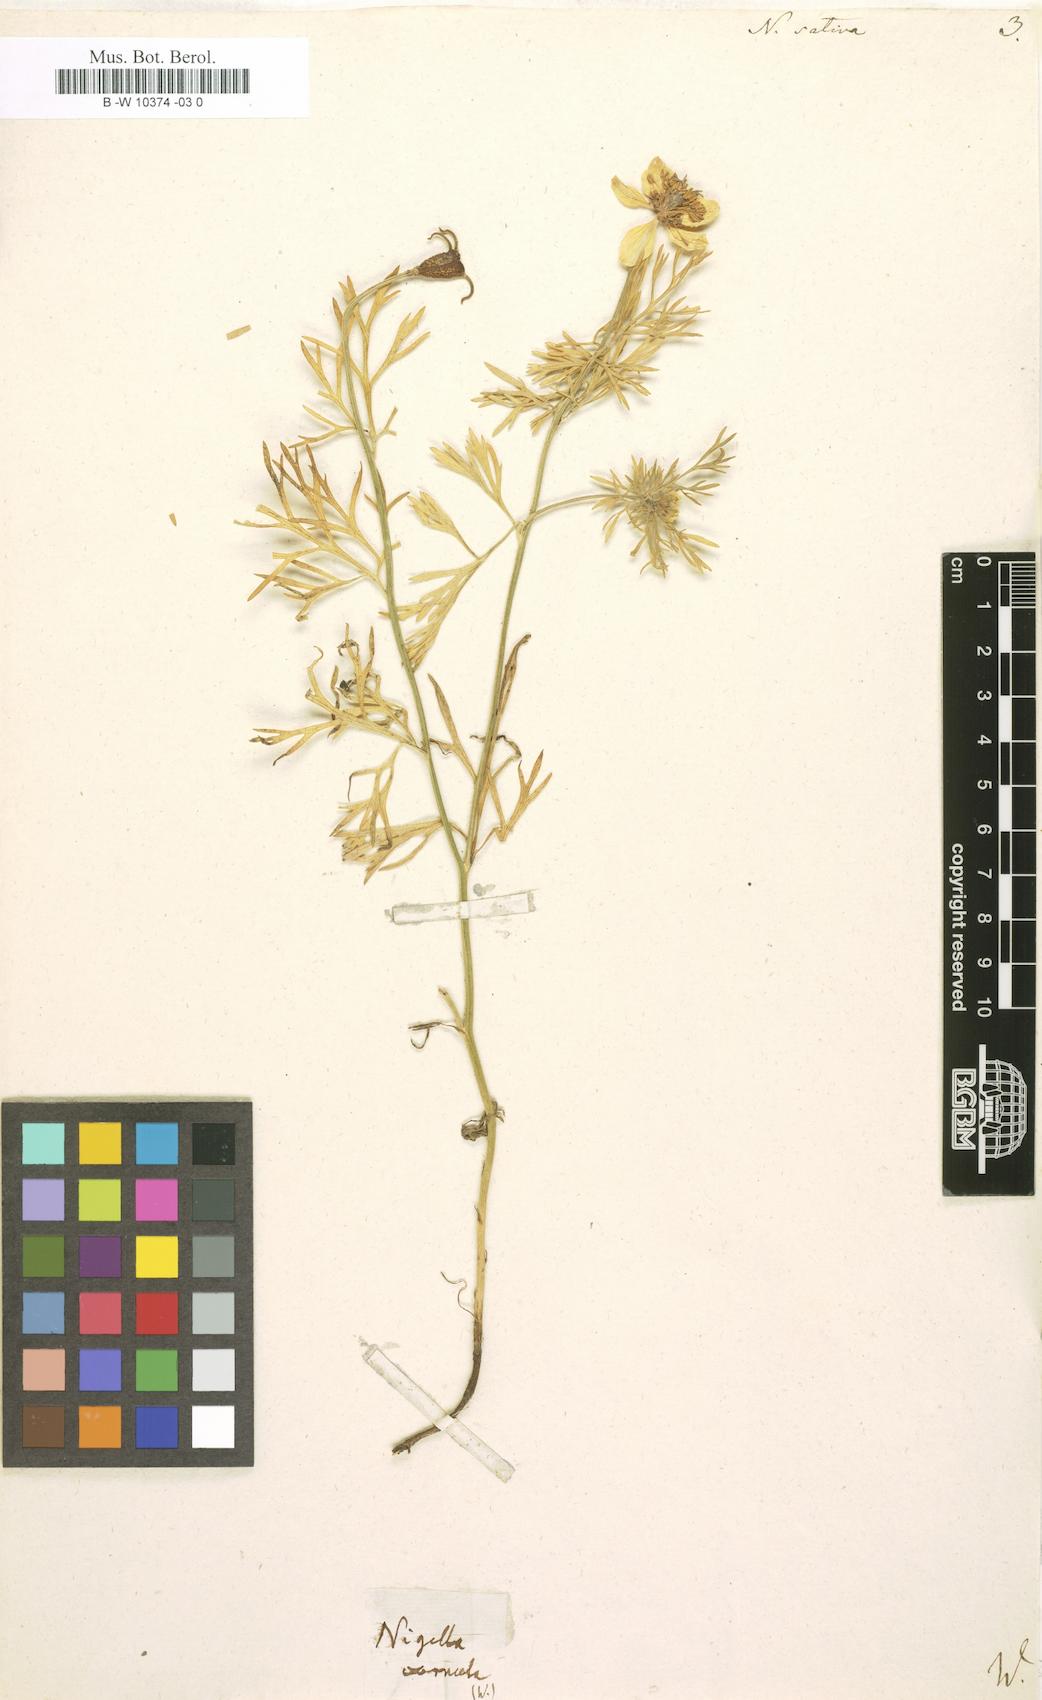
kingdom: Plantae
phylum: Tracheophyta
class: Magnoliopsida
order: Ranunculales
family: Ranunculaceae
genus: Nigella
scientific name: Nigella sativa
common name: Black-cumin
